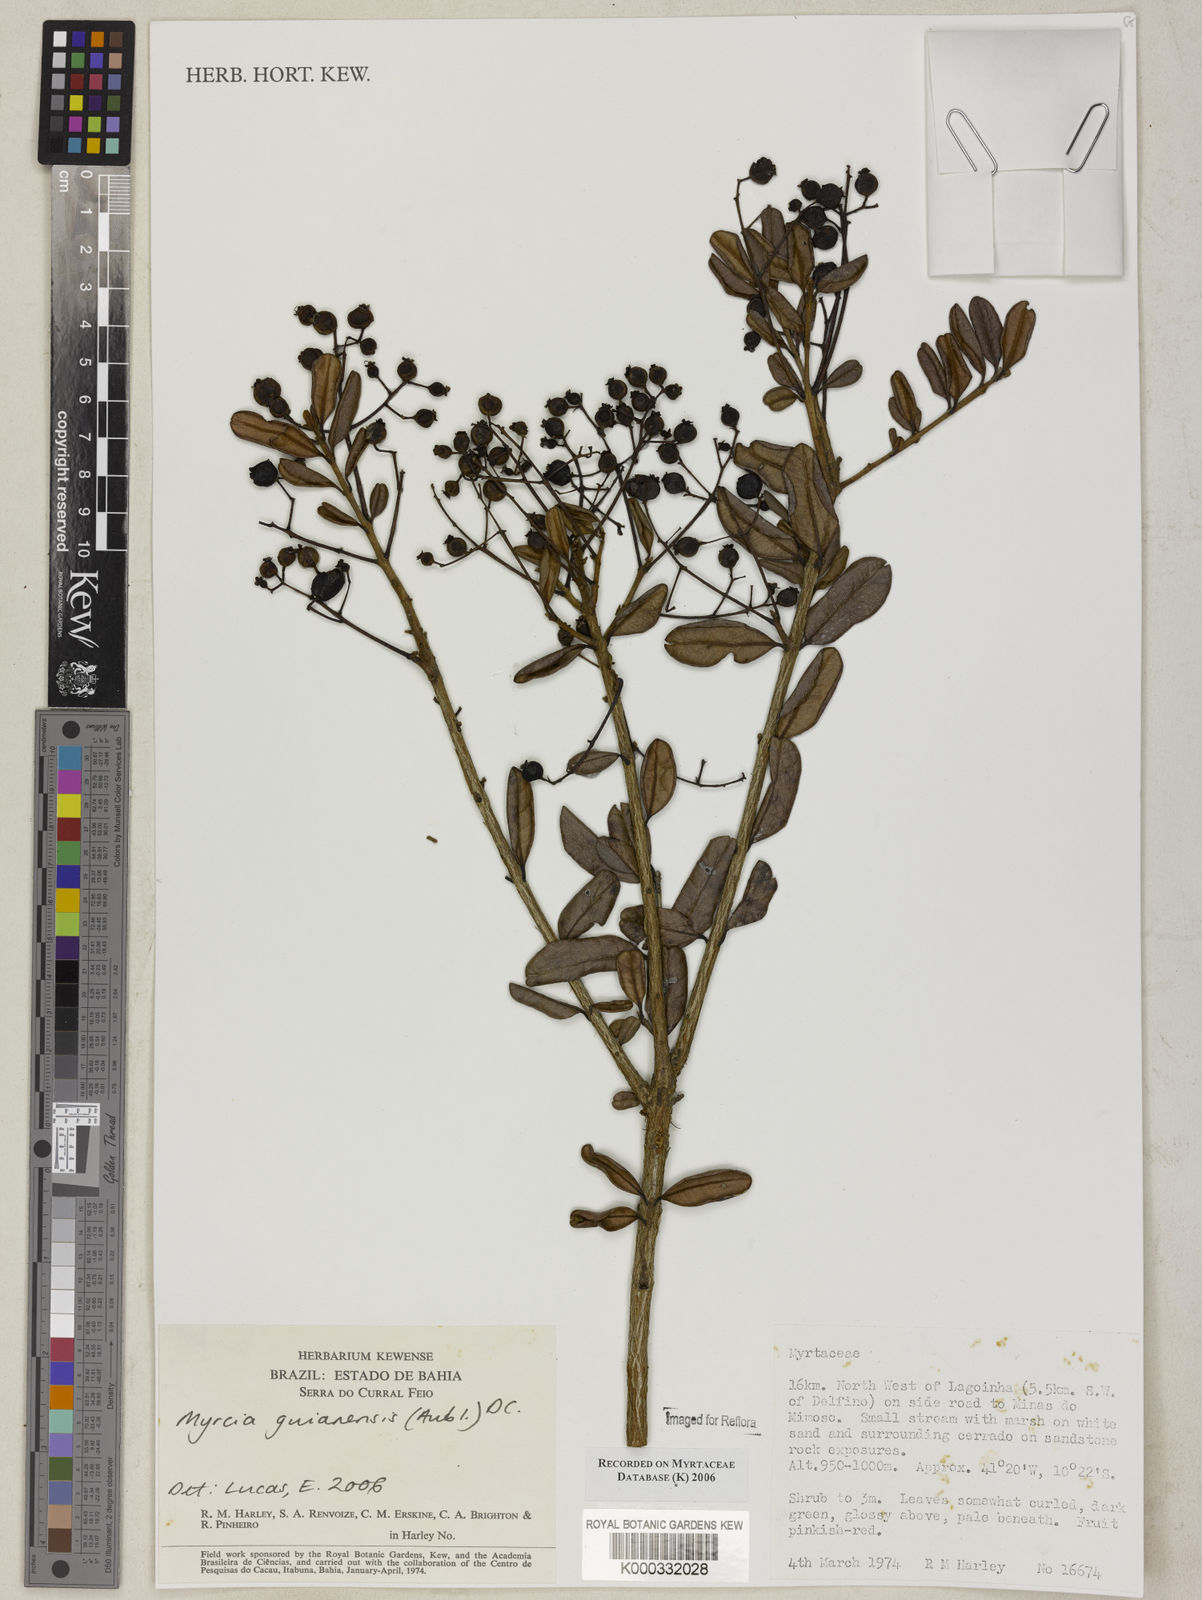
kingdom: Plantae
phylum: Tracheophyta
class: Magnoliopsida
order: Myrtales
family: Myrtaceae
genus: Myrcia
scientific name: Myrcia guianensis
